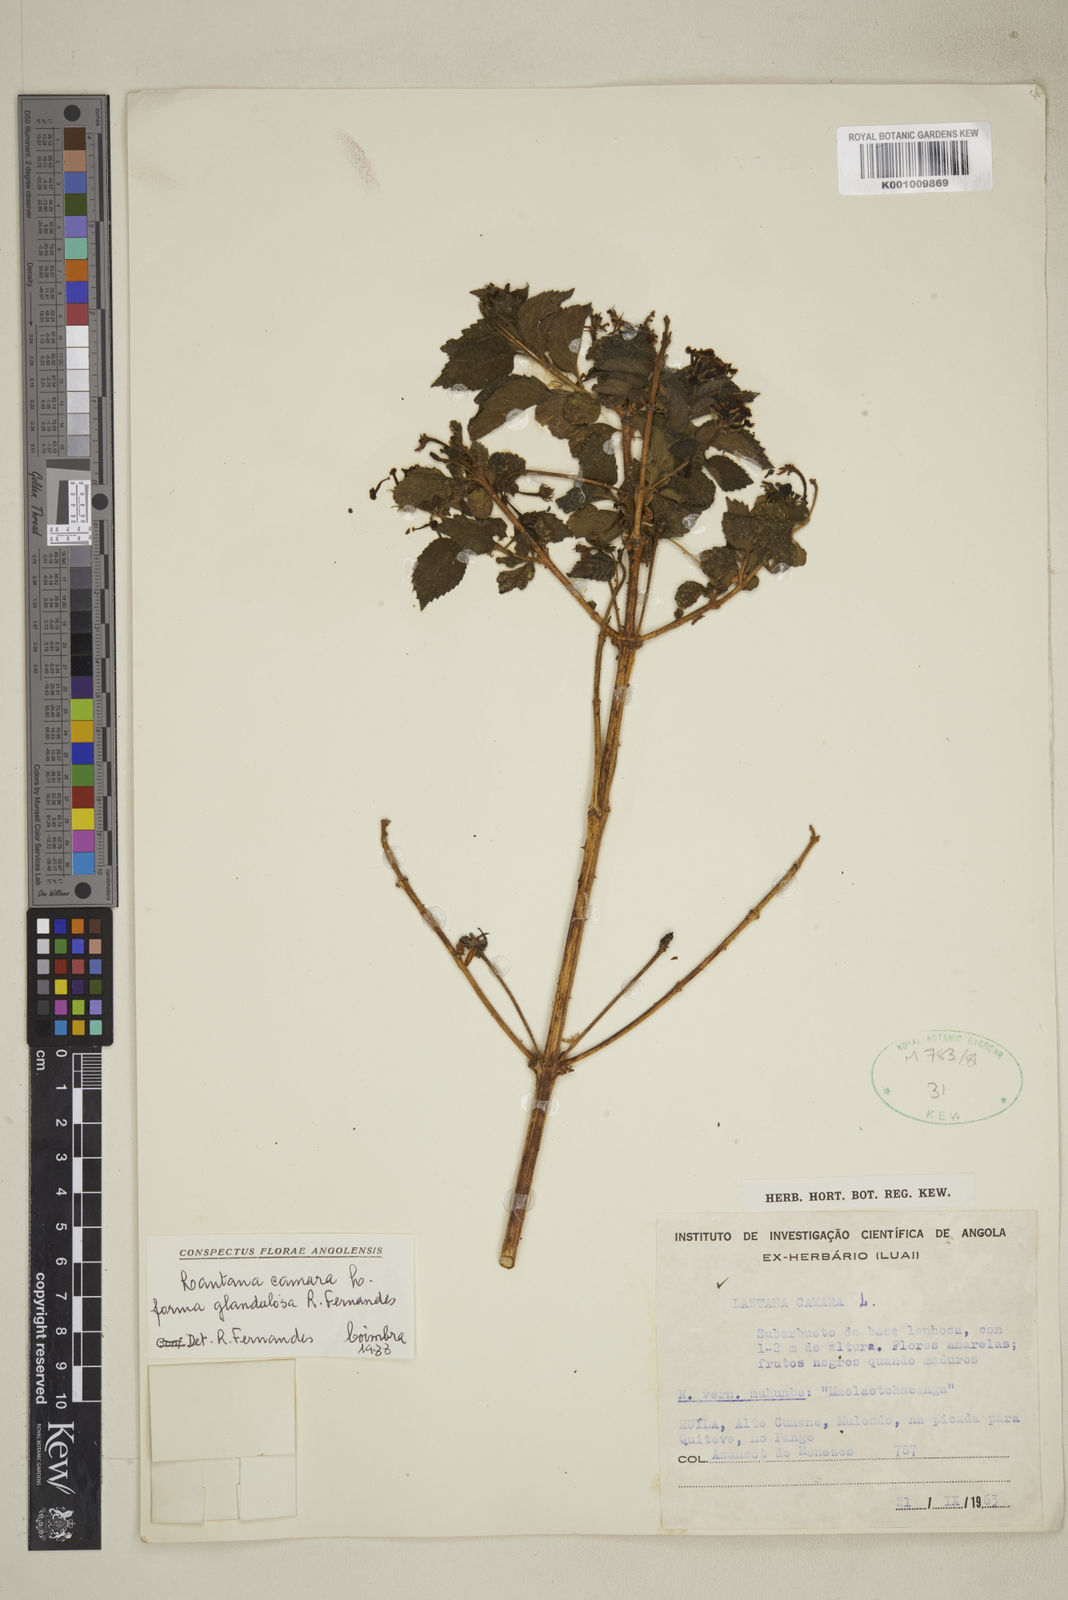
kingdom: Plantae
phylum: Tracheophyta
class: Magnoliopsida
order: Lamiales
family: Verbenaceae
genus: Lantana
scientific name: Lantana camara
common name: Lantana
